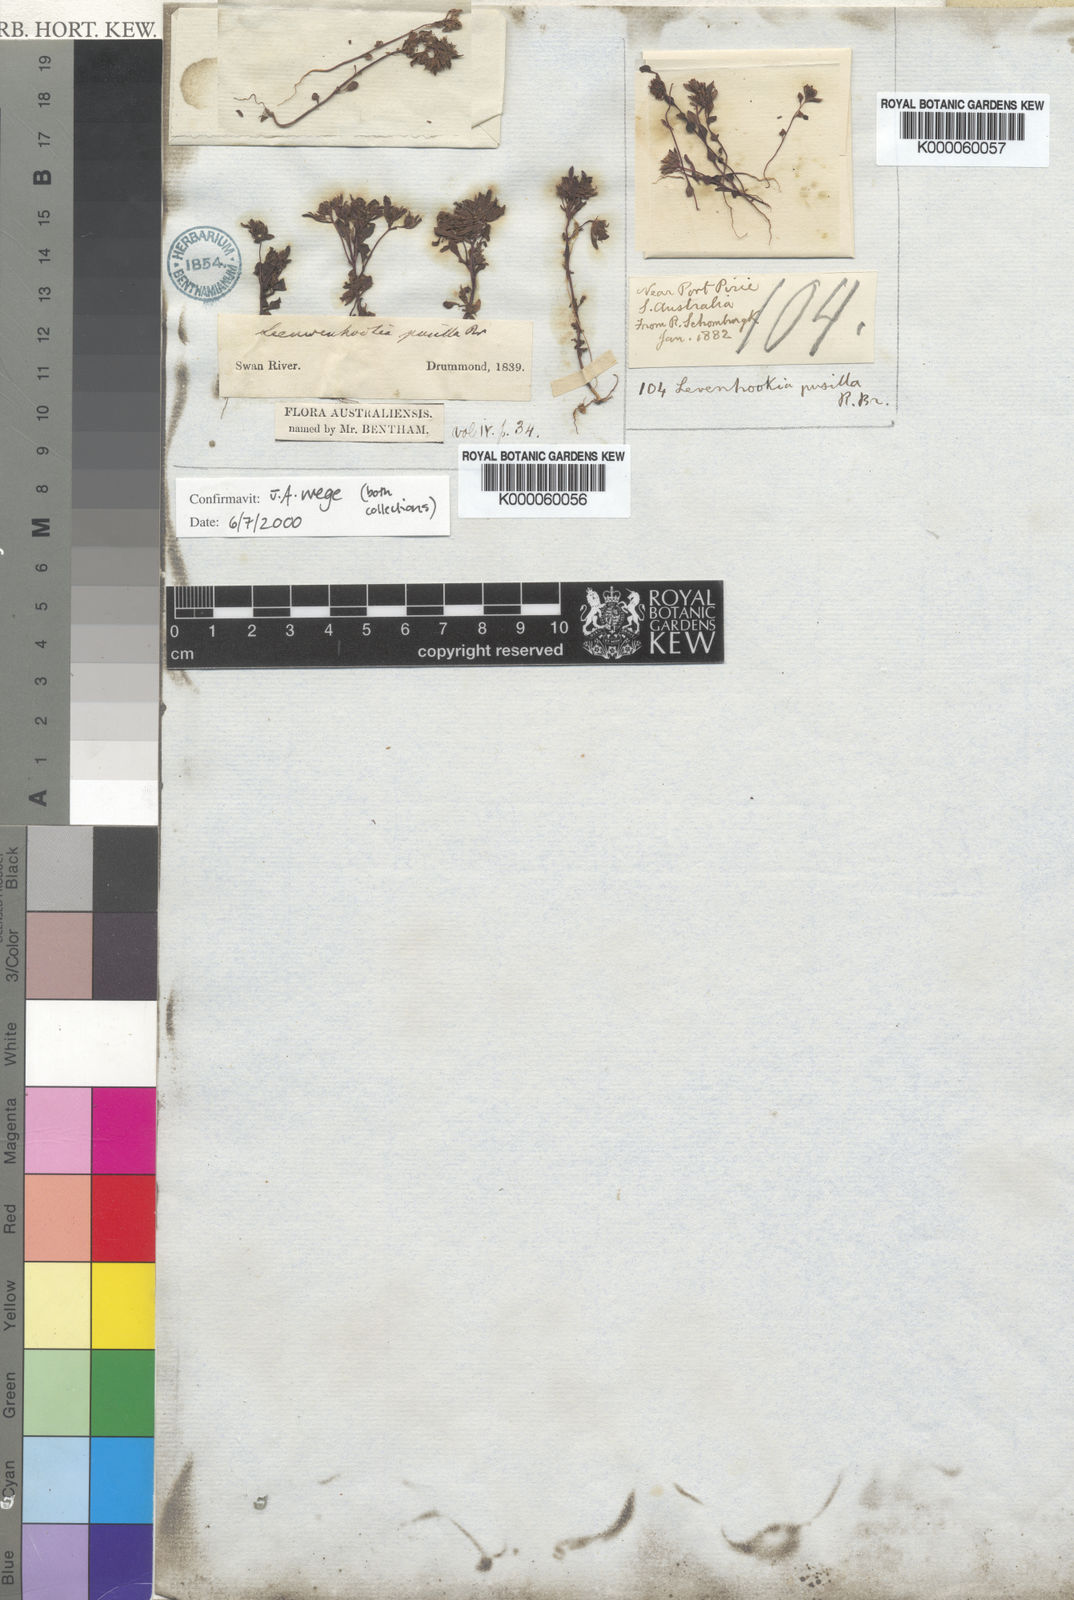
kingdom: Plantae
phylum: Tracheophyta
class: Magnoliopsida
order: Asterales
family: Stylidiaceae
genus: Levenhookia
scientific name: Levenhookia pusilla
